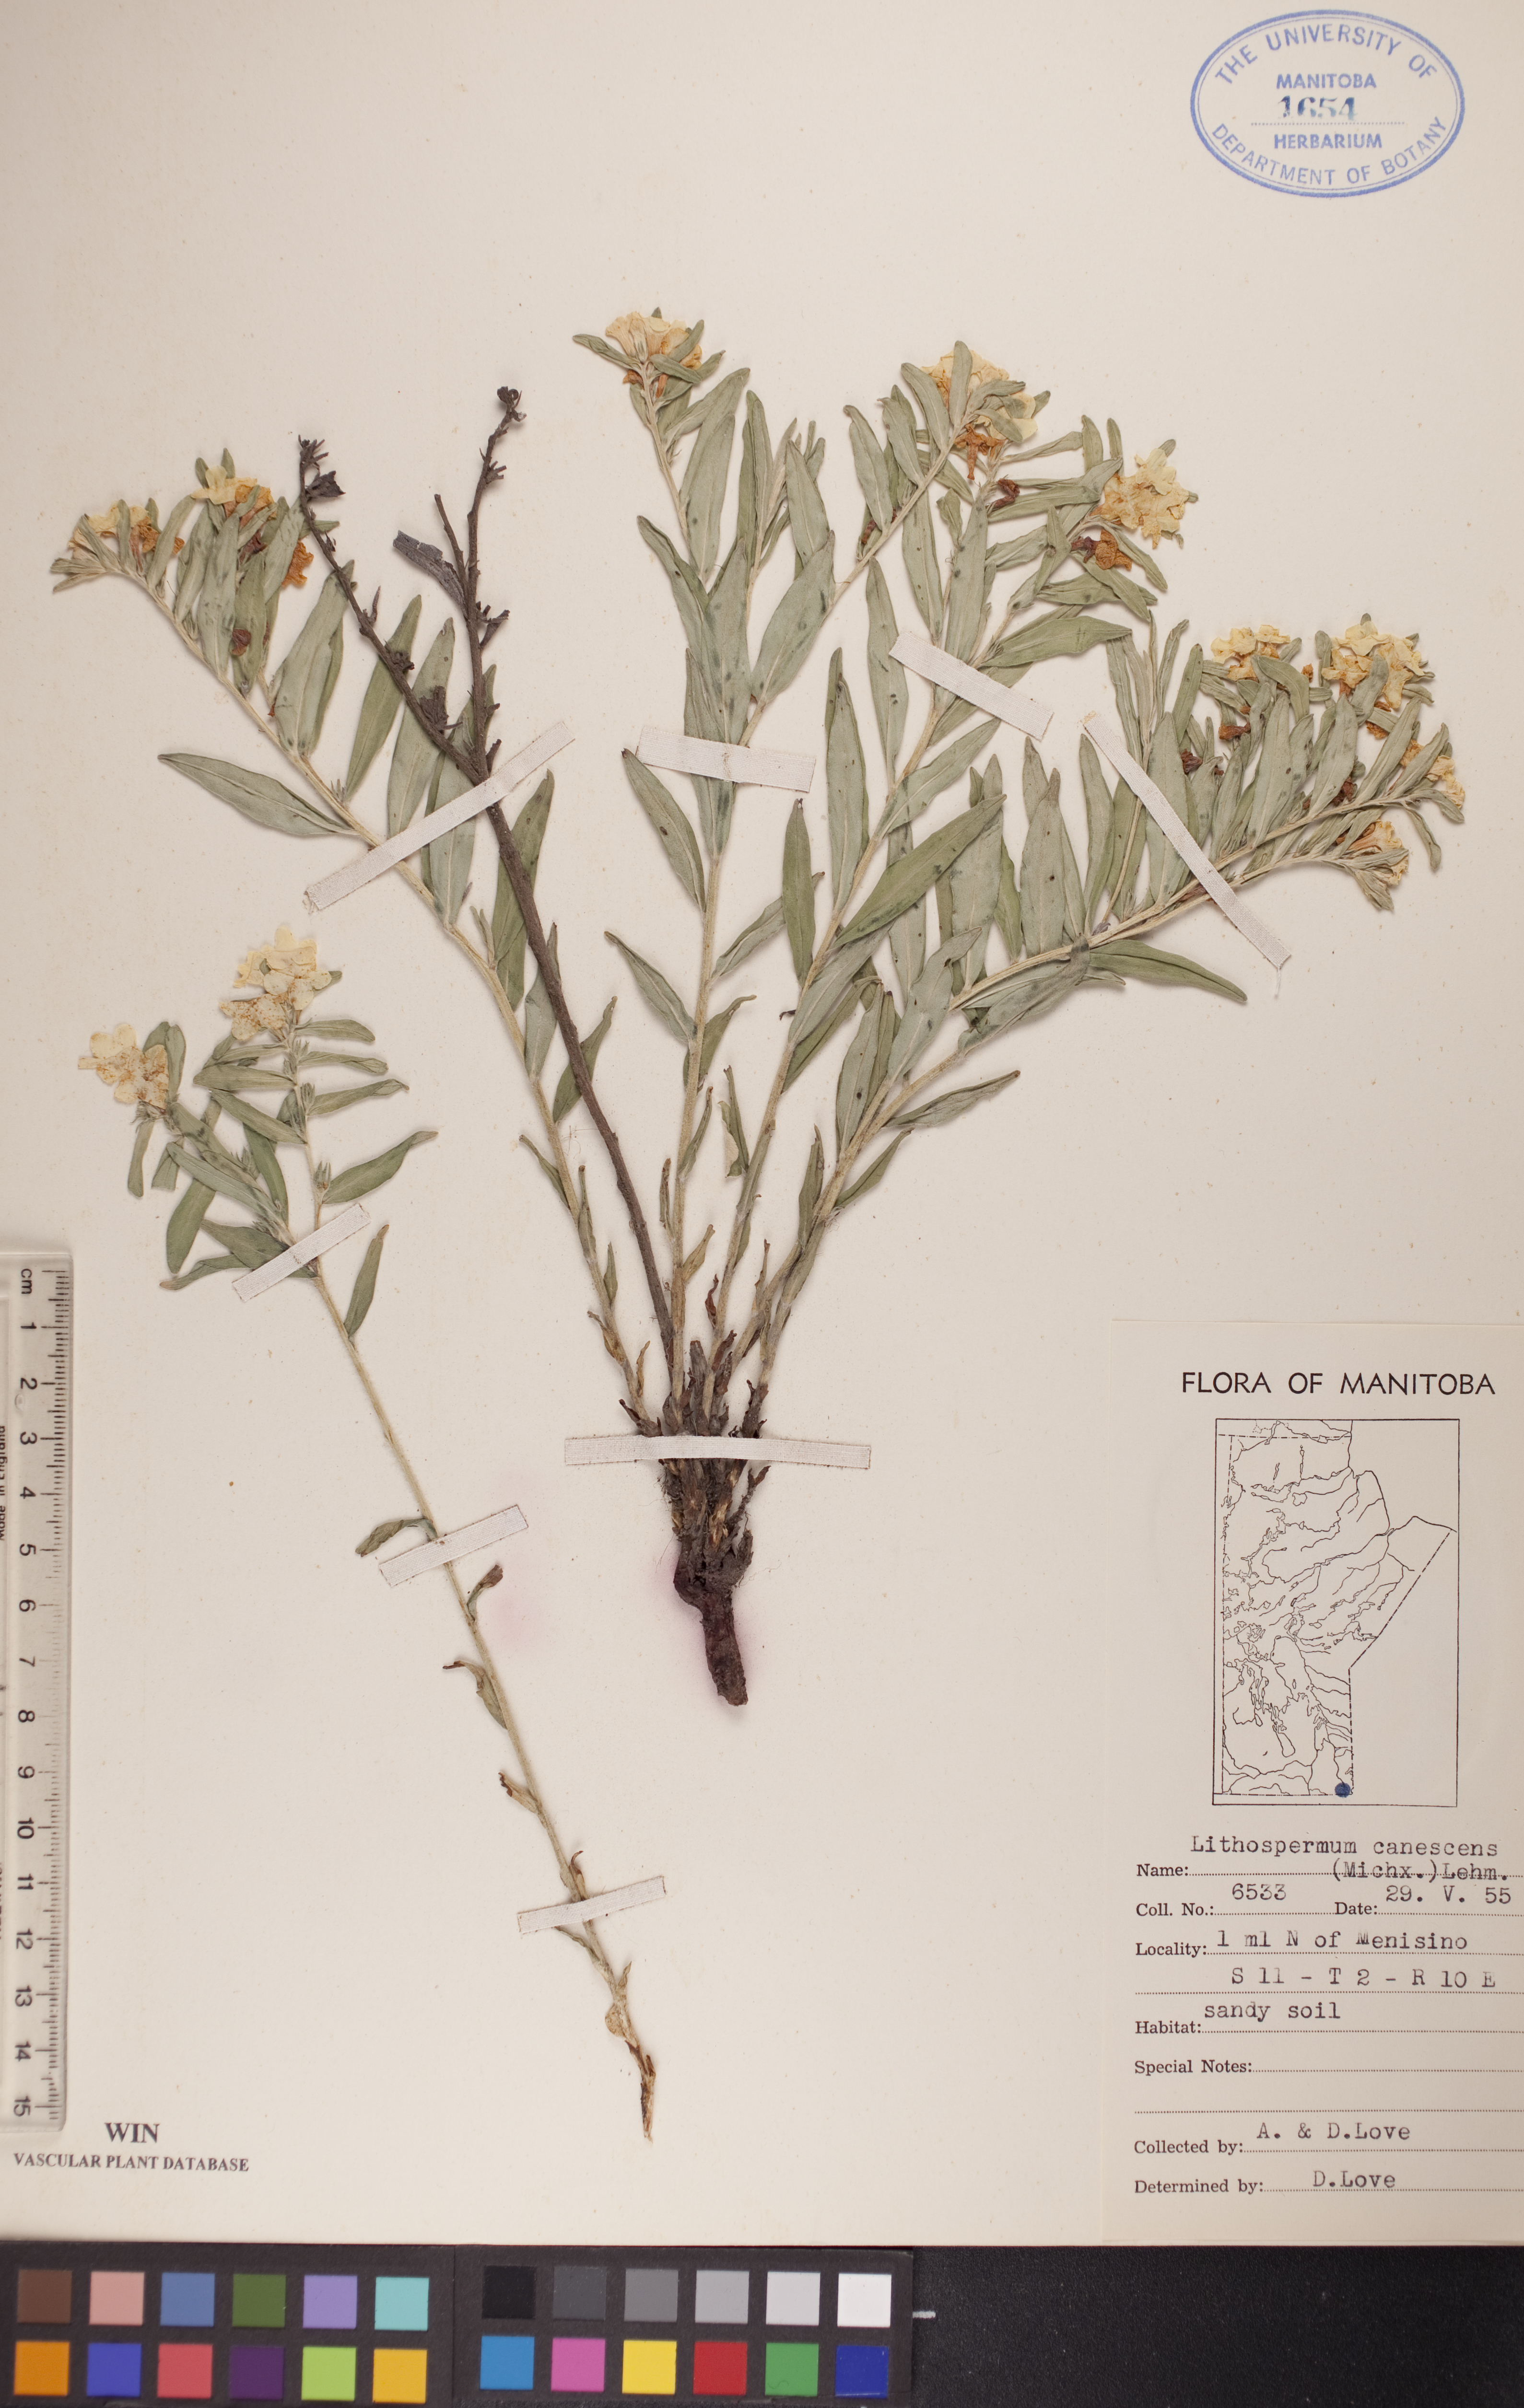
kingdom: Plantae
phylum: Tracheophyta
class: Magnoliopsida
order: Boraginales
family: Boraginaceae
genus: Lithospermum
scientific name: Lithospermum canescens
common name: Hoary puccoon
